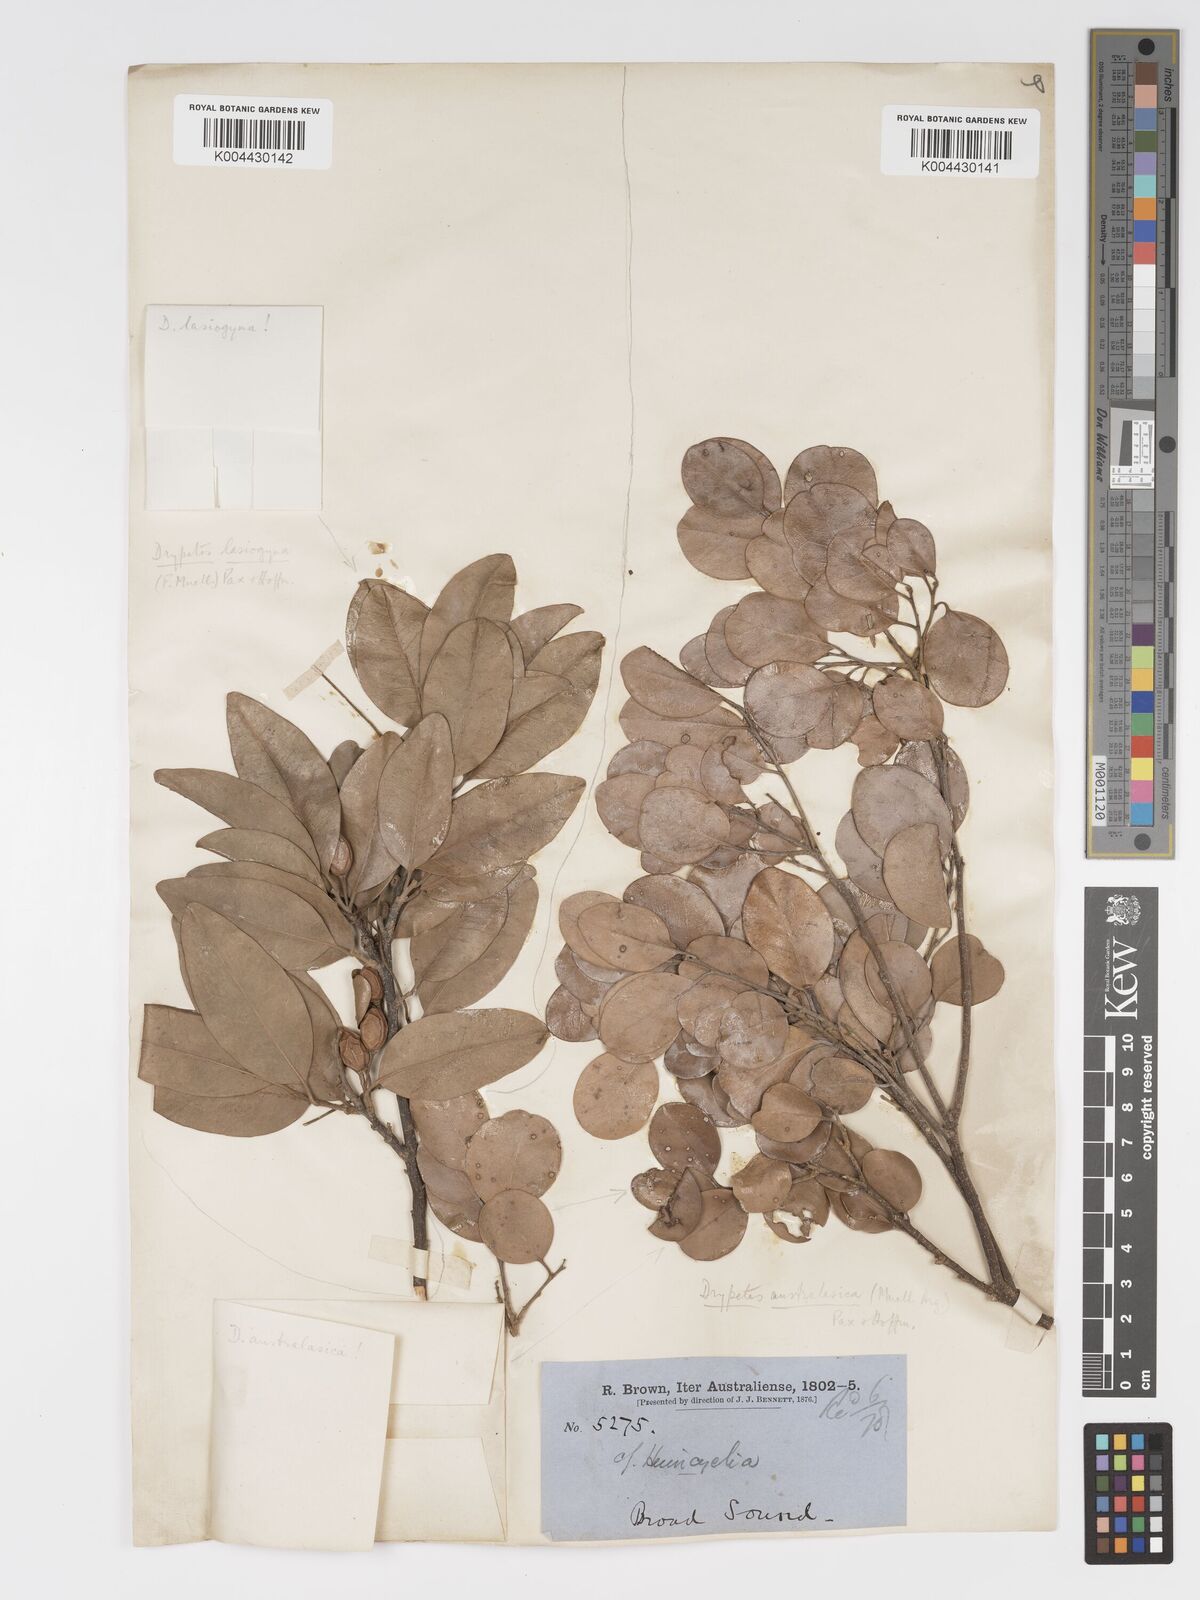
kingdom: Plantae
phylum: Tracheophyta
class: Magnoliopsida
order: Malpighiales
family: Putranjivaceae
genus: Drypetes
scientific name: Drypetes deplanchei
